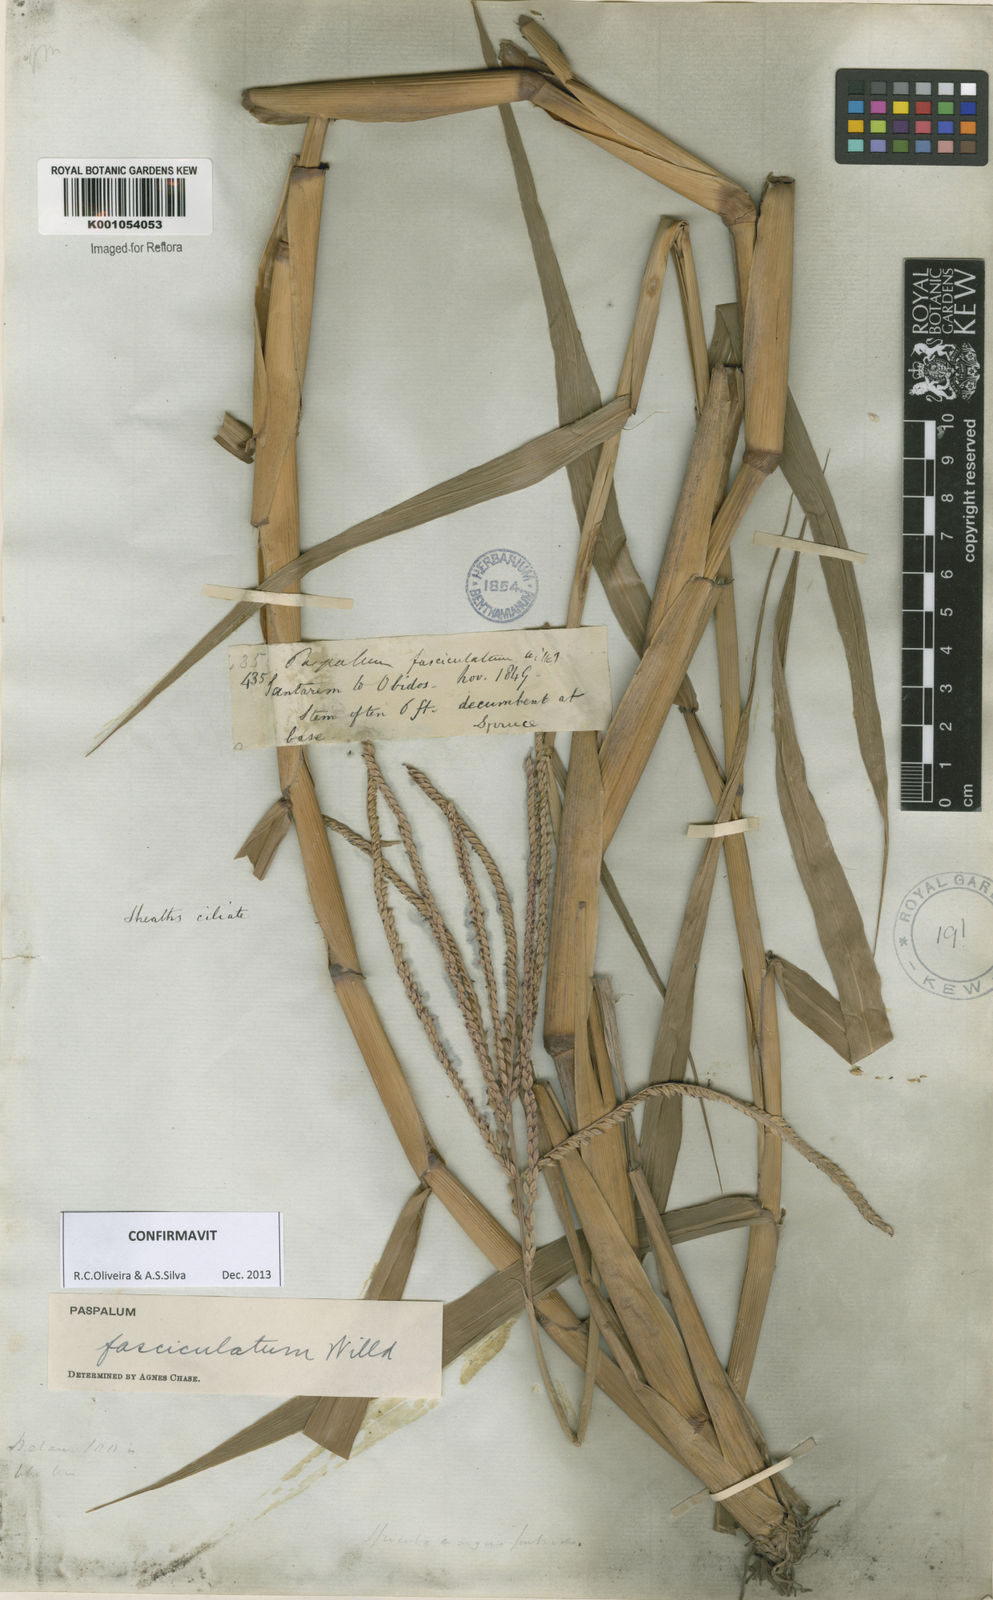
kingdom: Plantae
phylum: Tracheophyta
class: Liliopsida
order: Poales
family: Poaceae
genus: Paspalum
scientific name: Paspalum
